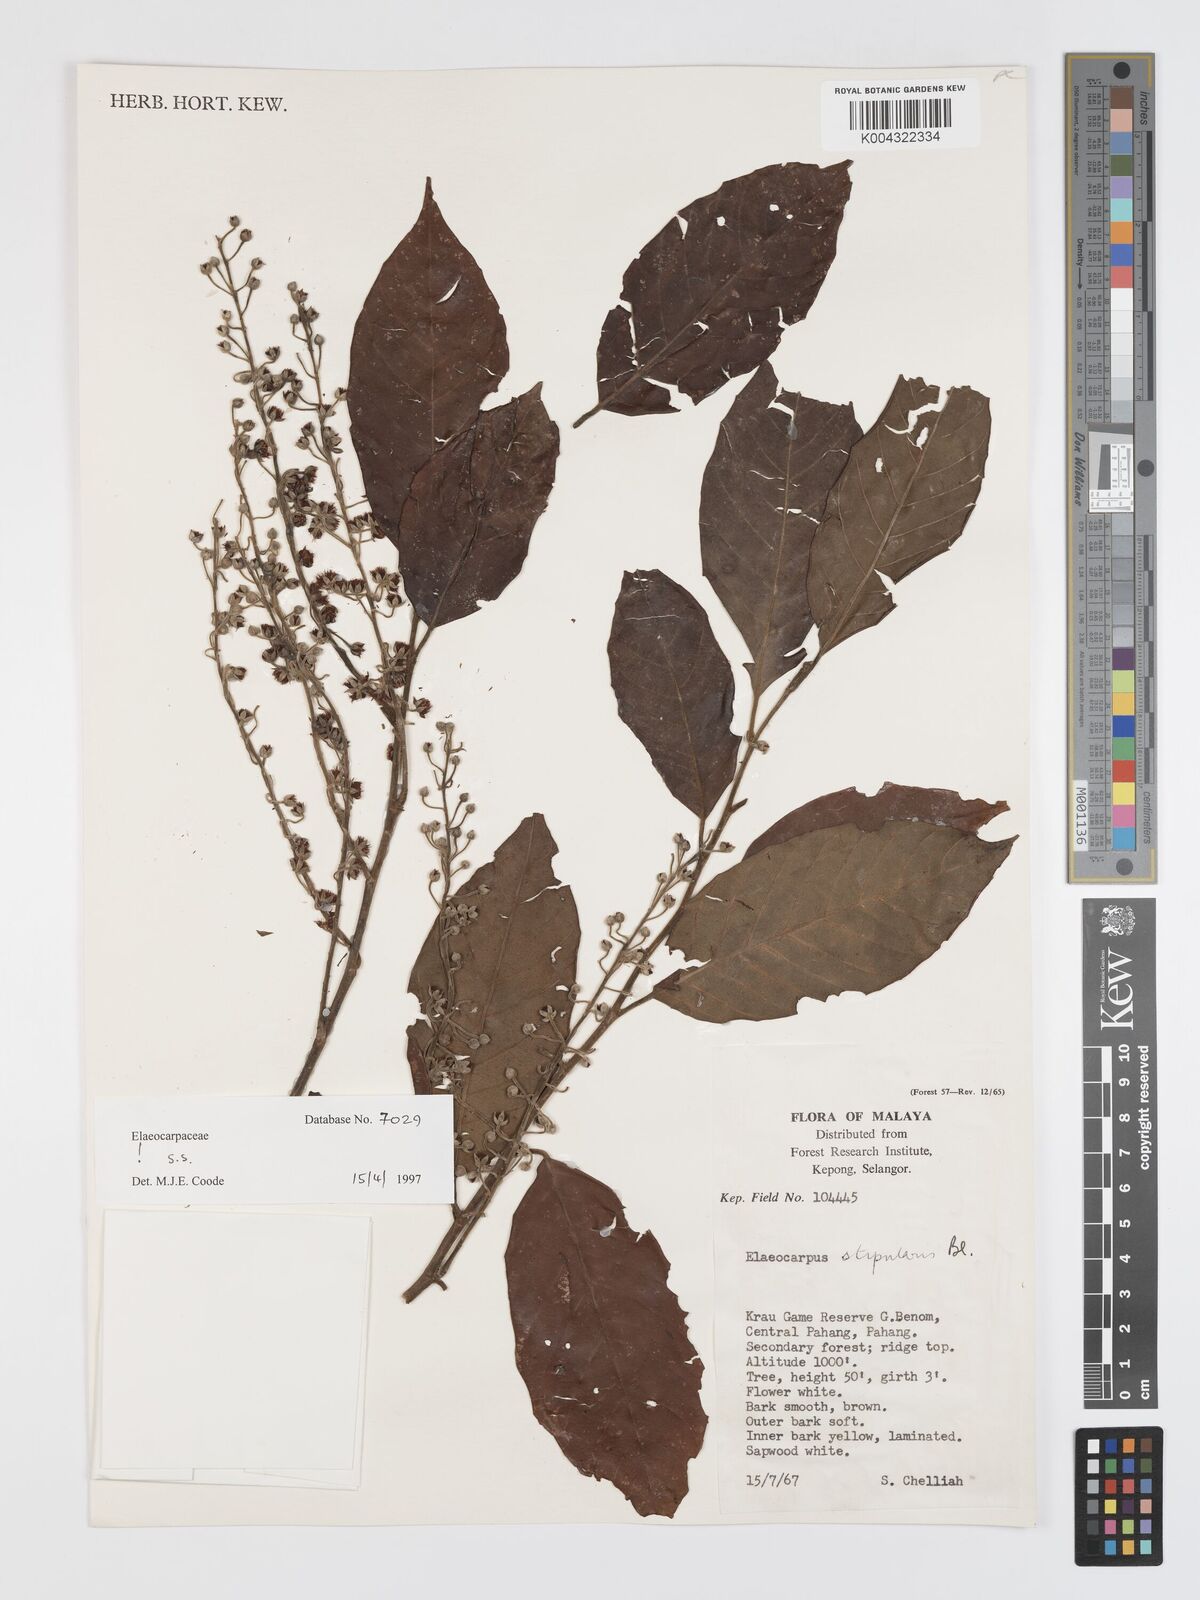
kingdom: Plantae
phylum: Tracheophyta
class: Magnoliopsida
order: Oxalidales
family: Elaeocarpaceae
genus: Elaeocarpus
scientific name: Elaeocarpus stipularis
